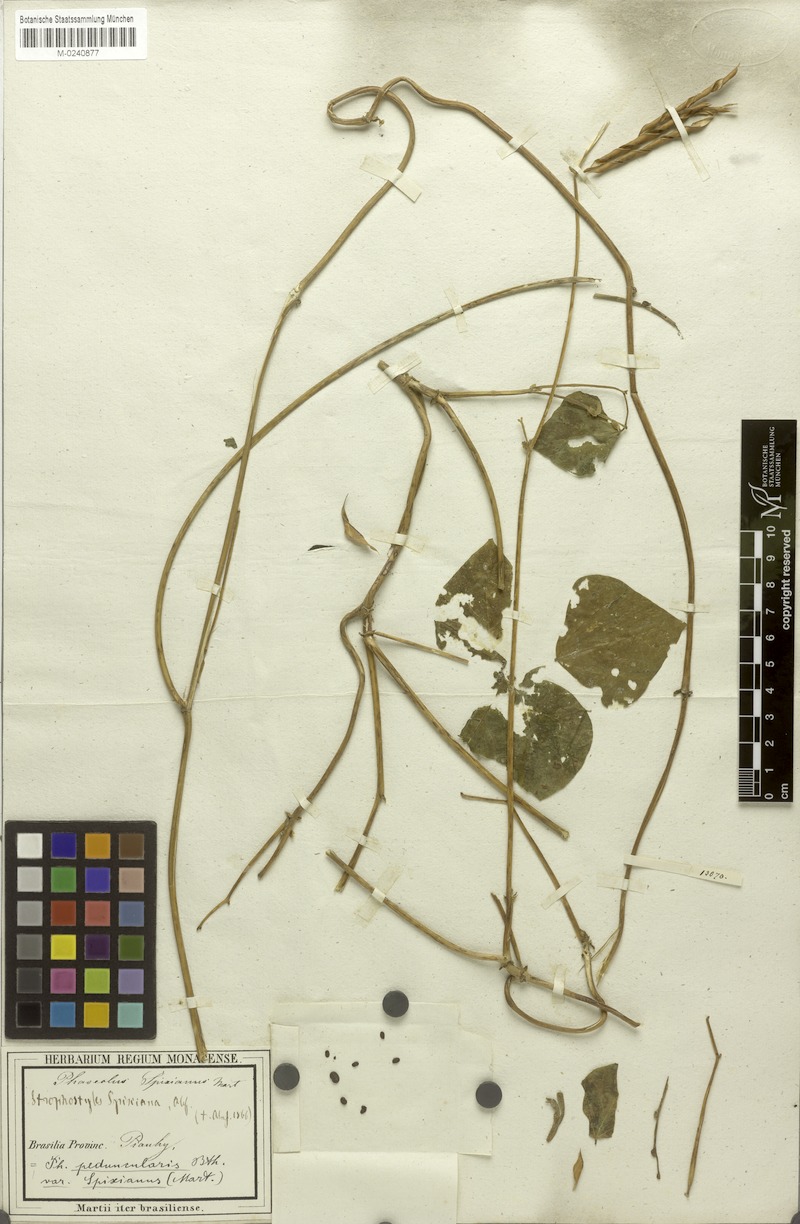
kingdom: Plantae
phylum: Tracheophyta
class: Magnoliopsida
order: Fabales
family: Fabaceae
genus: Ancistrotropis
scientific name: Ancistrotropis peduncularis
